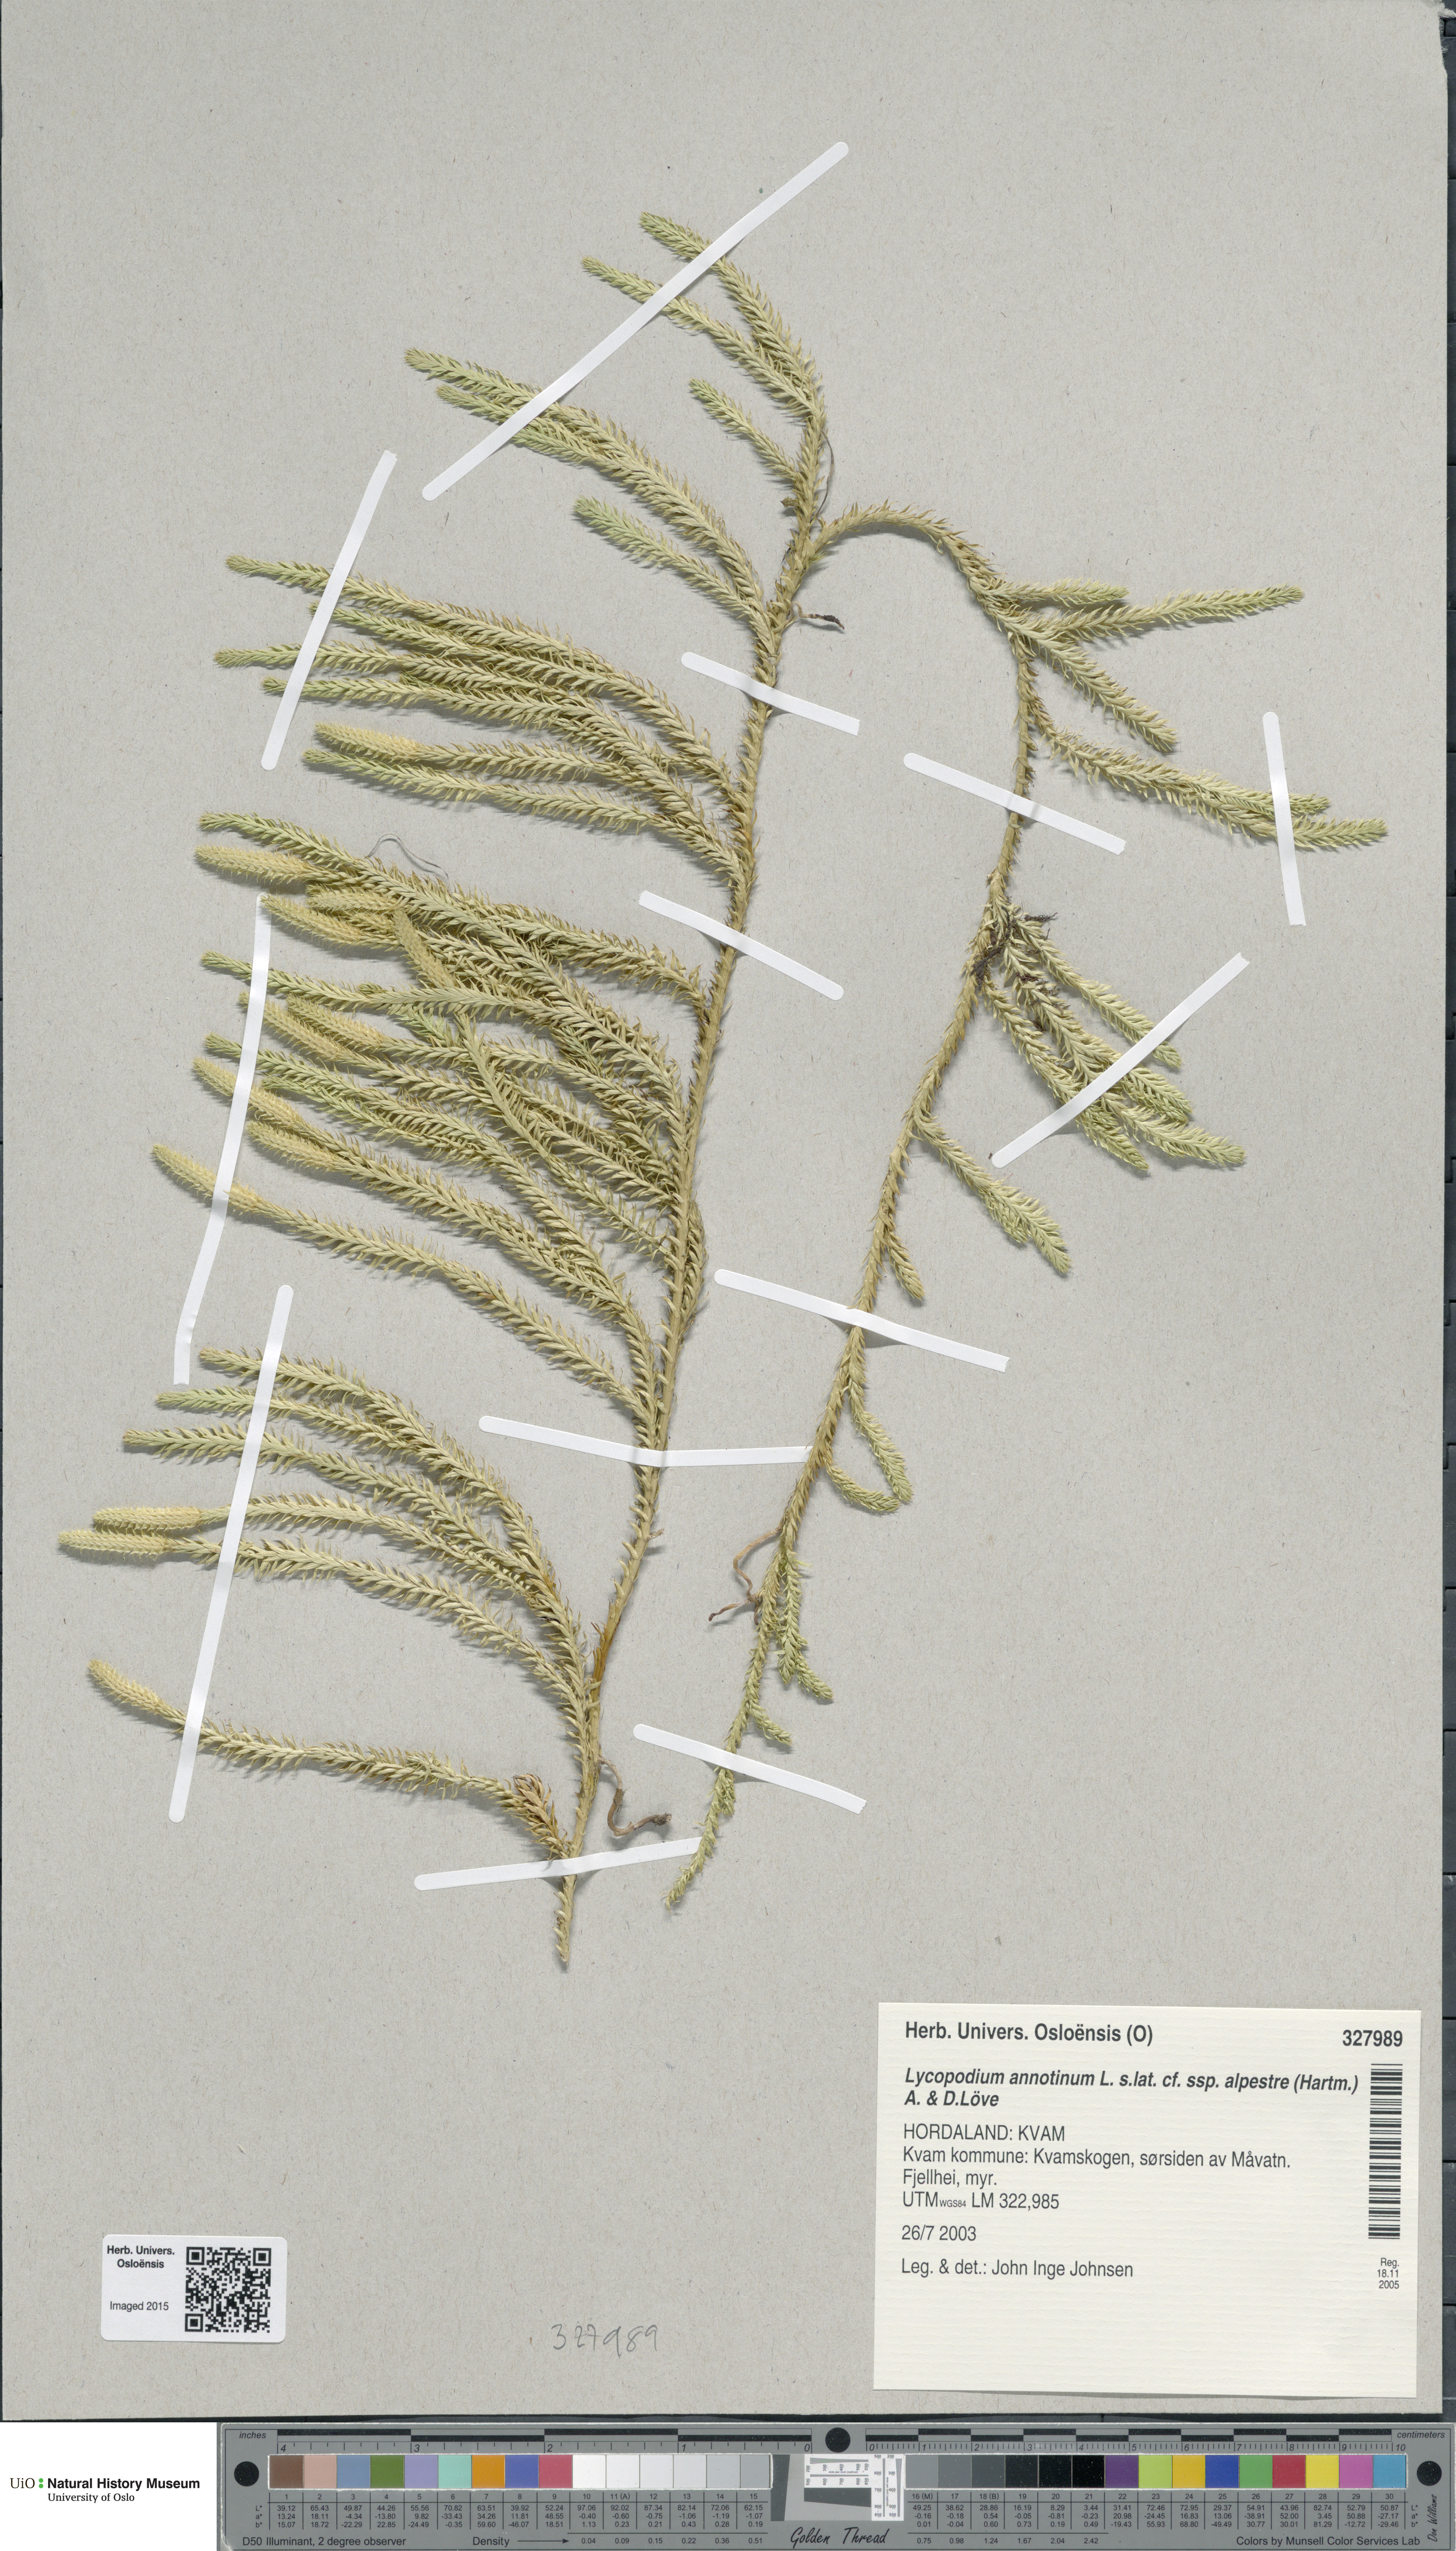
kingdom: Plantae
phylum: Tracheophyta
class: Lycopodiopsida
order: Lycopodiales
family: Lycopodiaceae
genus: Spinulum
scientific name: Spinulum annotinum
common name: Interrupted club-moss
